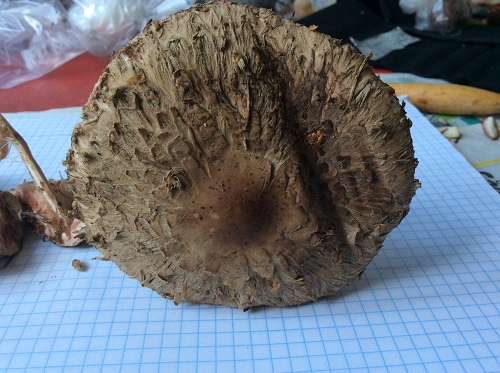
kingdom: Fungi
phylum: Basidiomycota
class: Agaricomycetes
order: Agaricales
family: Agaricaceae
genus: Chlorophyllum
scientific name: Chlorophyllum olivieri
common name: almindelig rabarberhat
